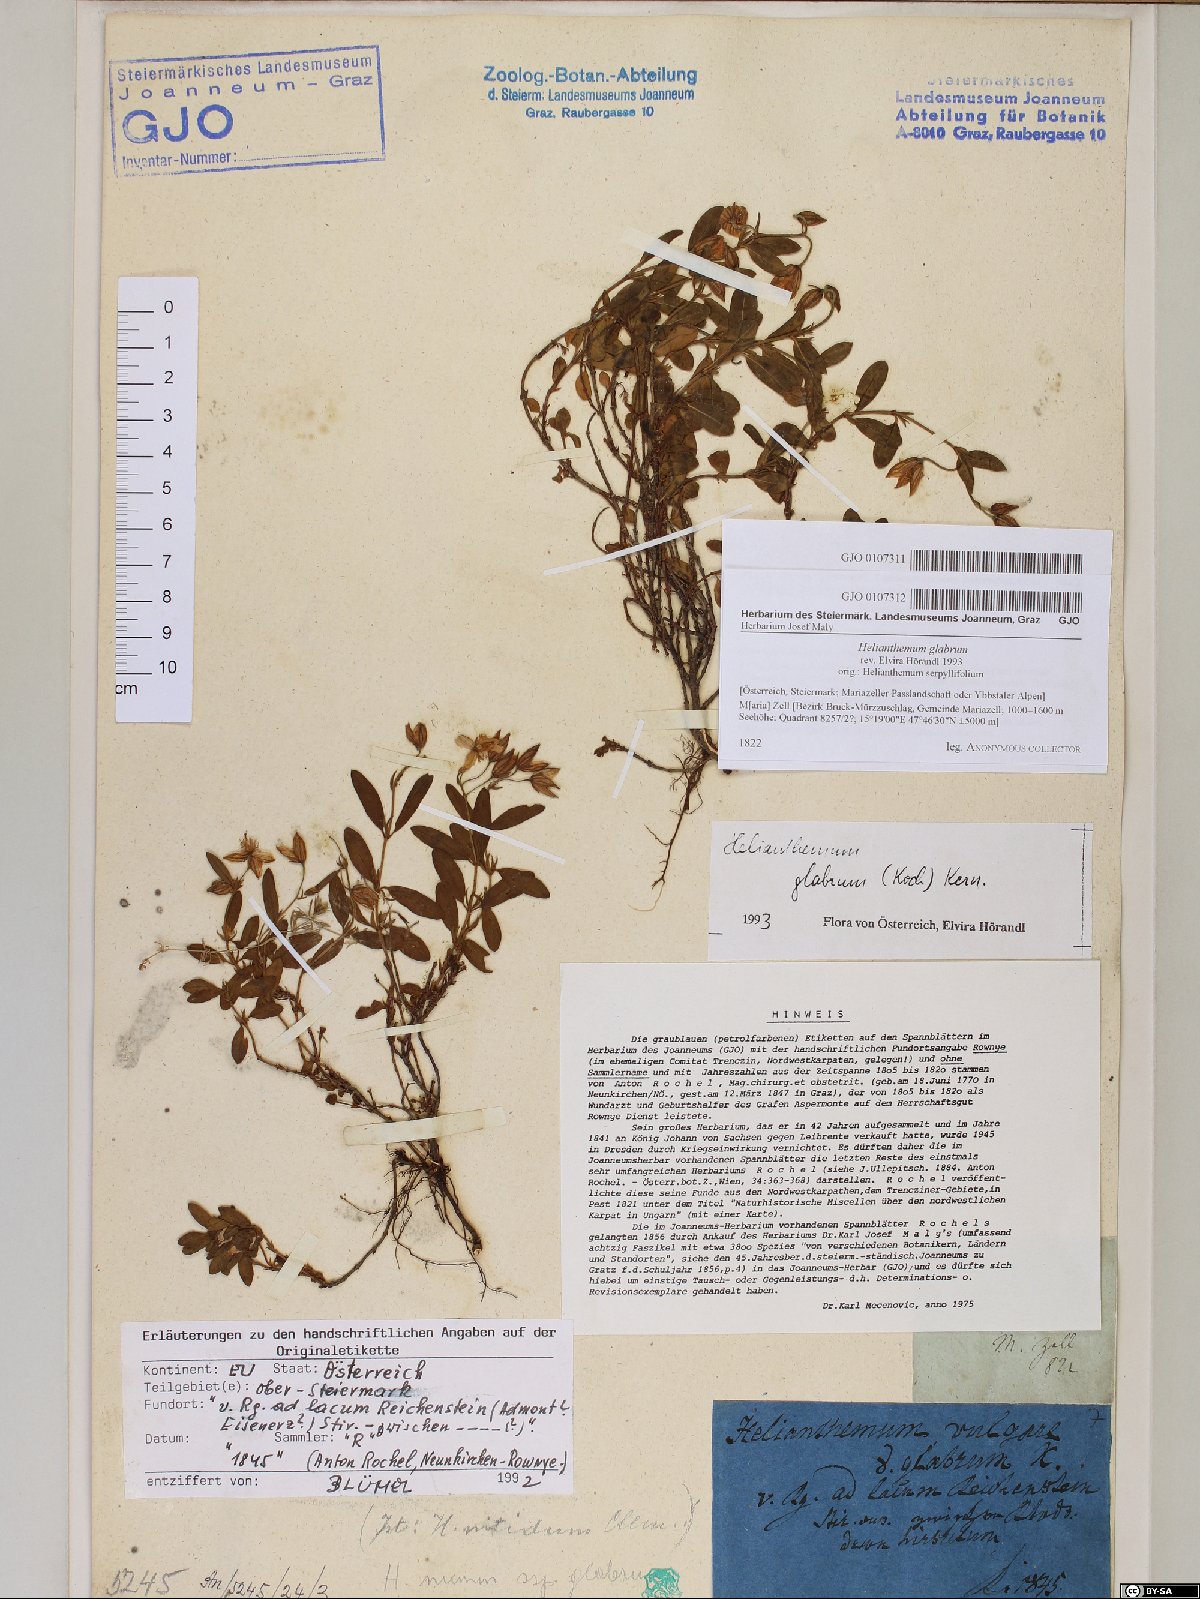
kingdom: Plantae
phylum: Tracheophyta
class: Magnoliopsida
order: Malvales
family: Cistaceae
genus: Helianthemum
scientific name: Helianthemum nummularium
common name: Common rock-rose
